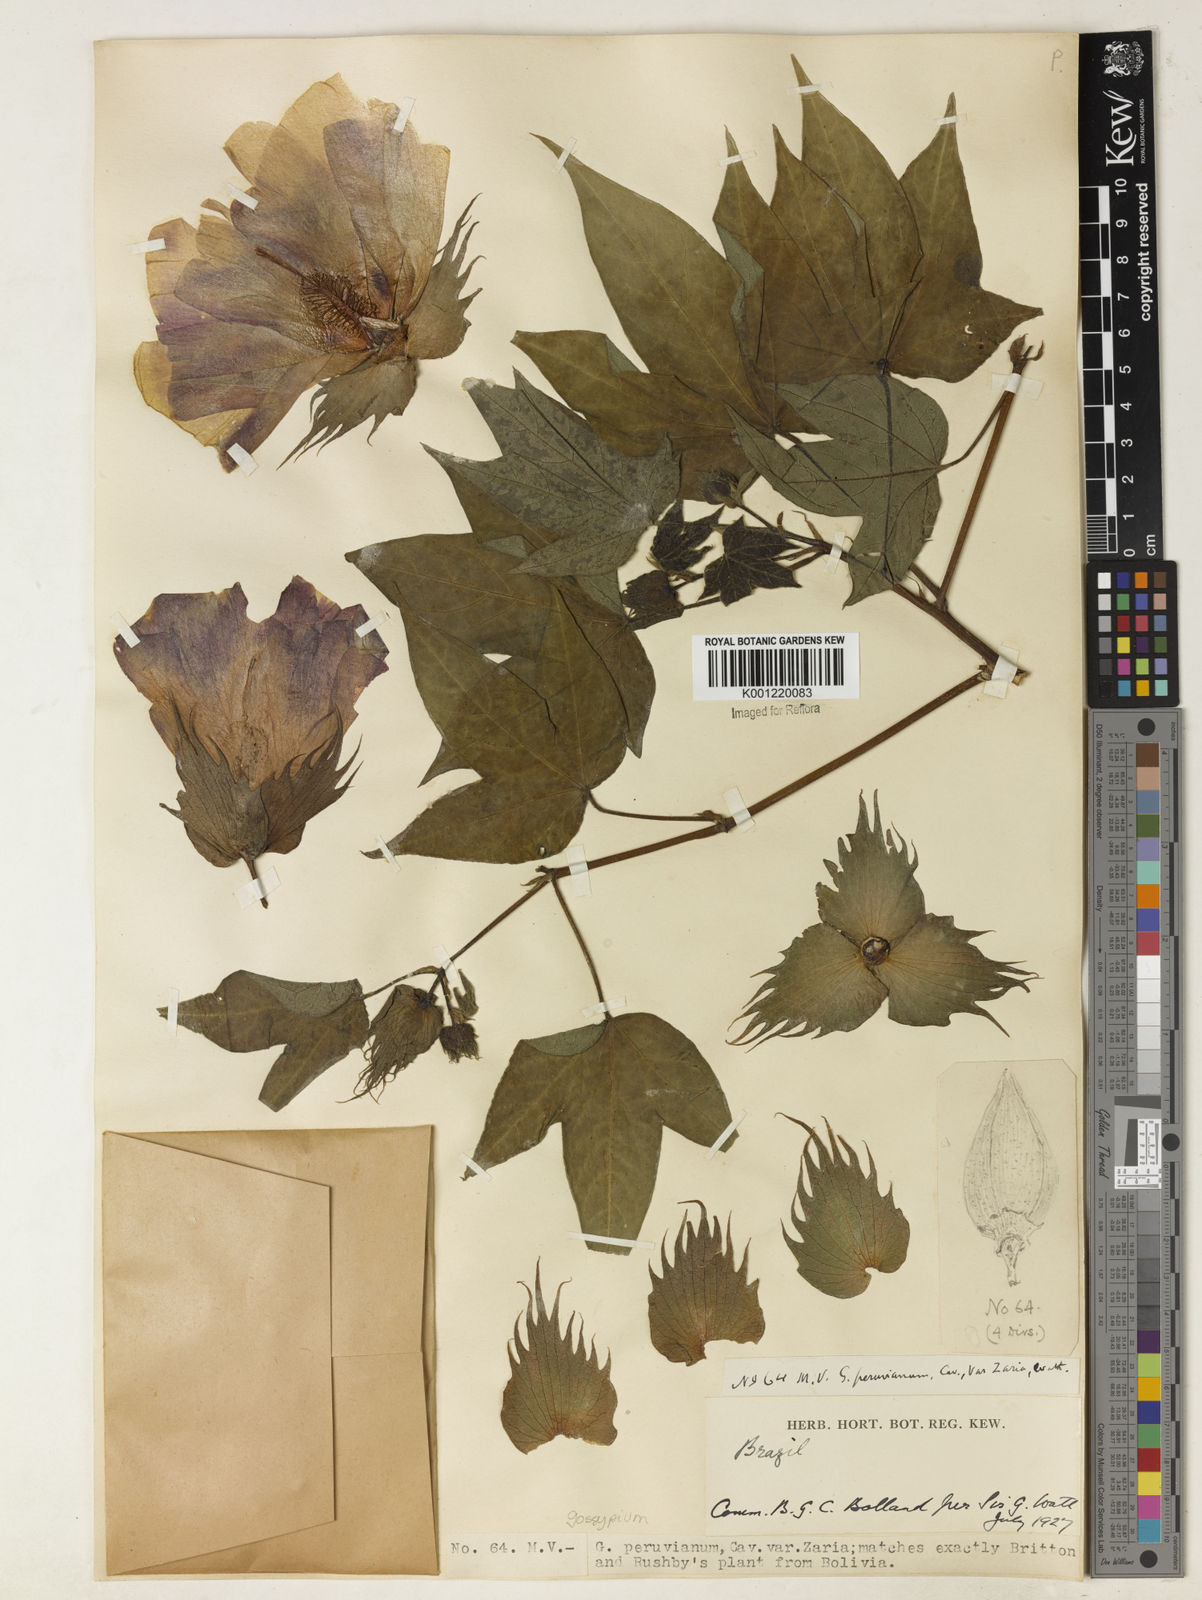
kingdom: Plantae
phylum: Tracheophyta
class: Magnoliopsida
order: Malvales
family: Malvaceae
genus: Gossypium
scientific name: Gossypium barbadense
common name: Creole cotton
